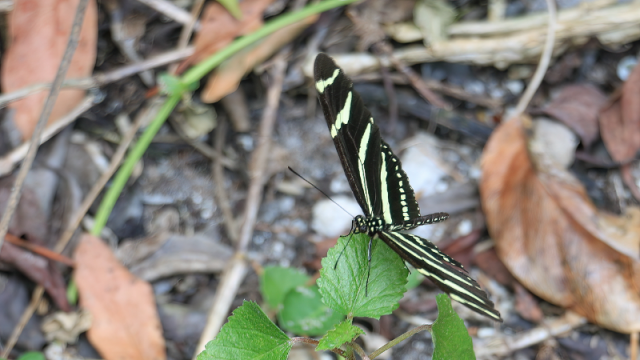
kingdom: Animalia
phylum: Arthropoda
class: Insecta
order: Lepidoptera
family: Nymphalidae
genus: Heliconius
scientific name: Heliconius charithonia
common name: Zebra Longwing
